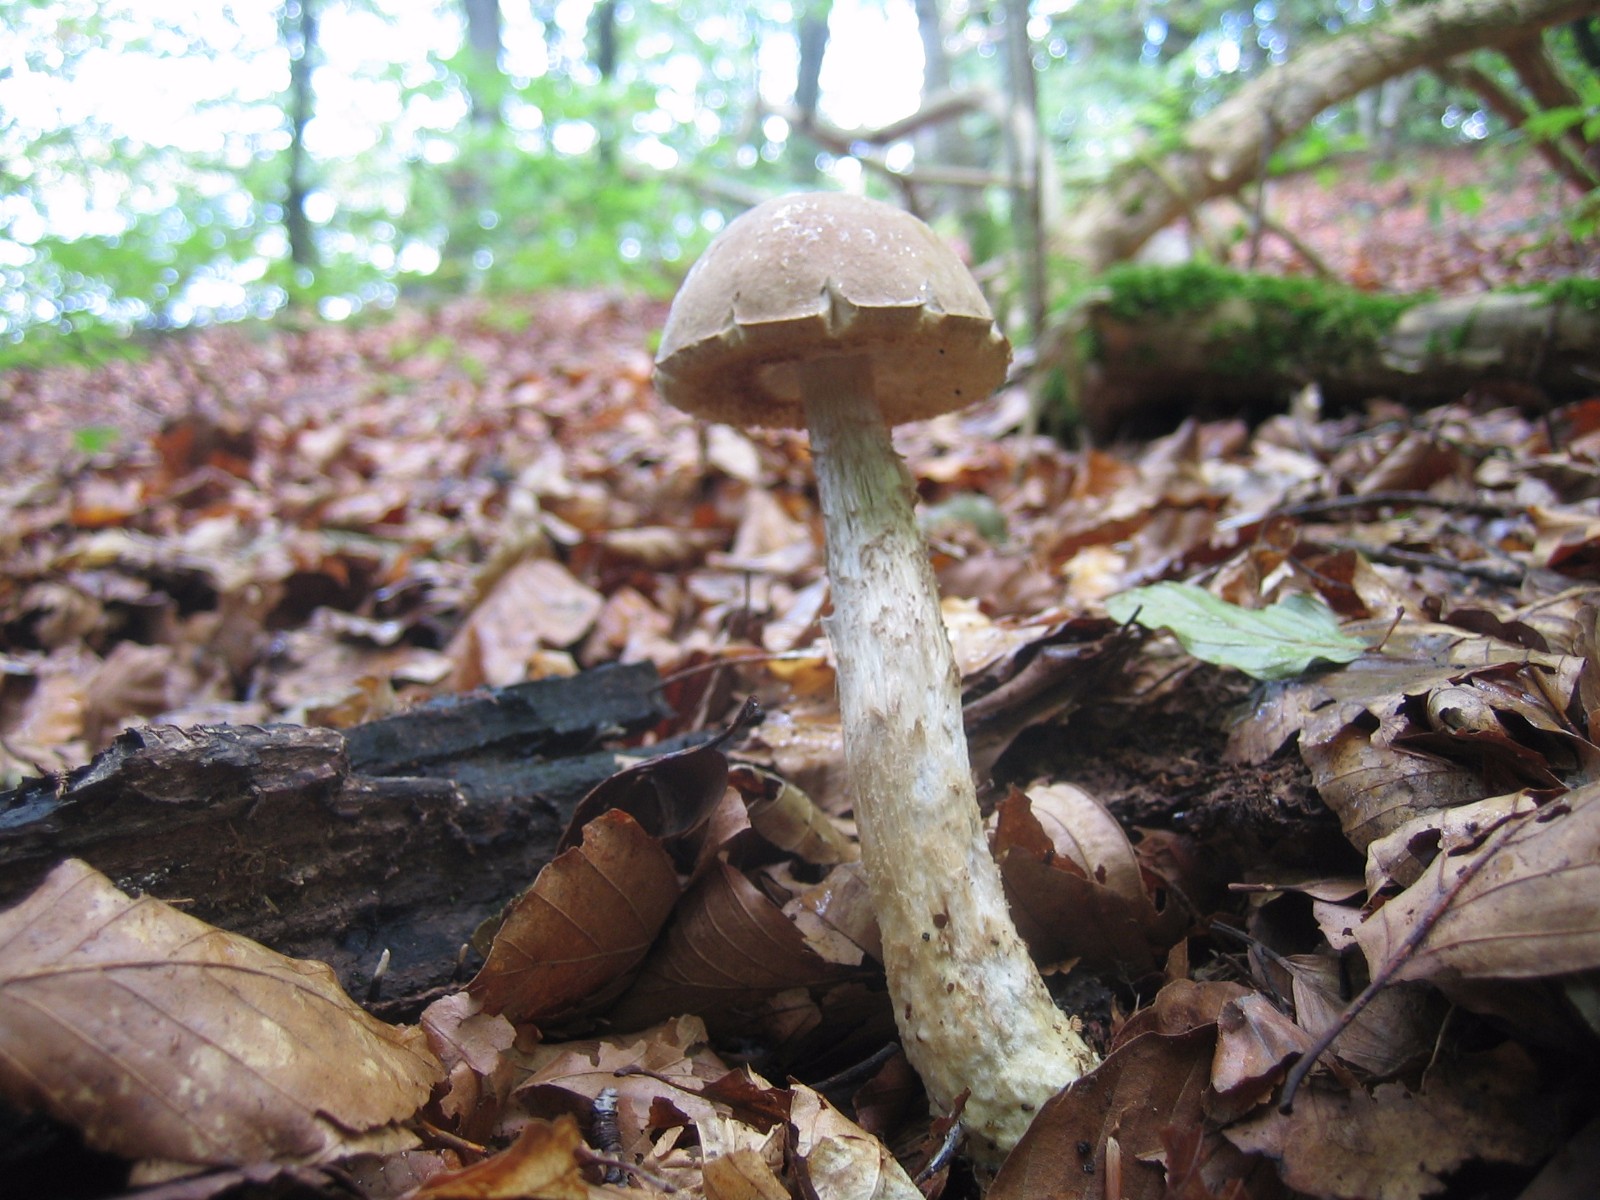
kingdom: Fungi
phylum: Basidiomycota
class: Agaricomycetes
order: Boletales
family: Boletaceae
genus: Leccinum
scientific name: Leccinum
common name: skælrørhat
